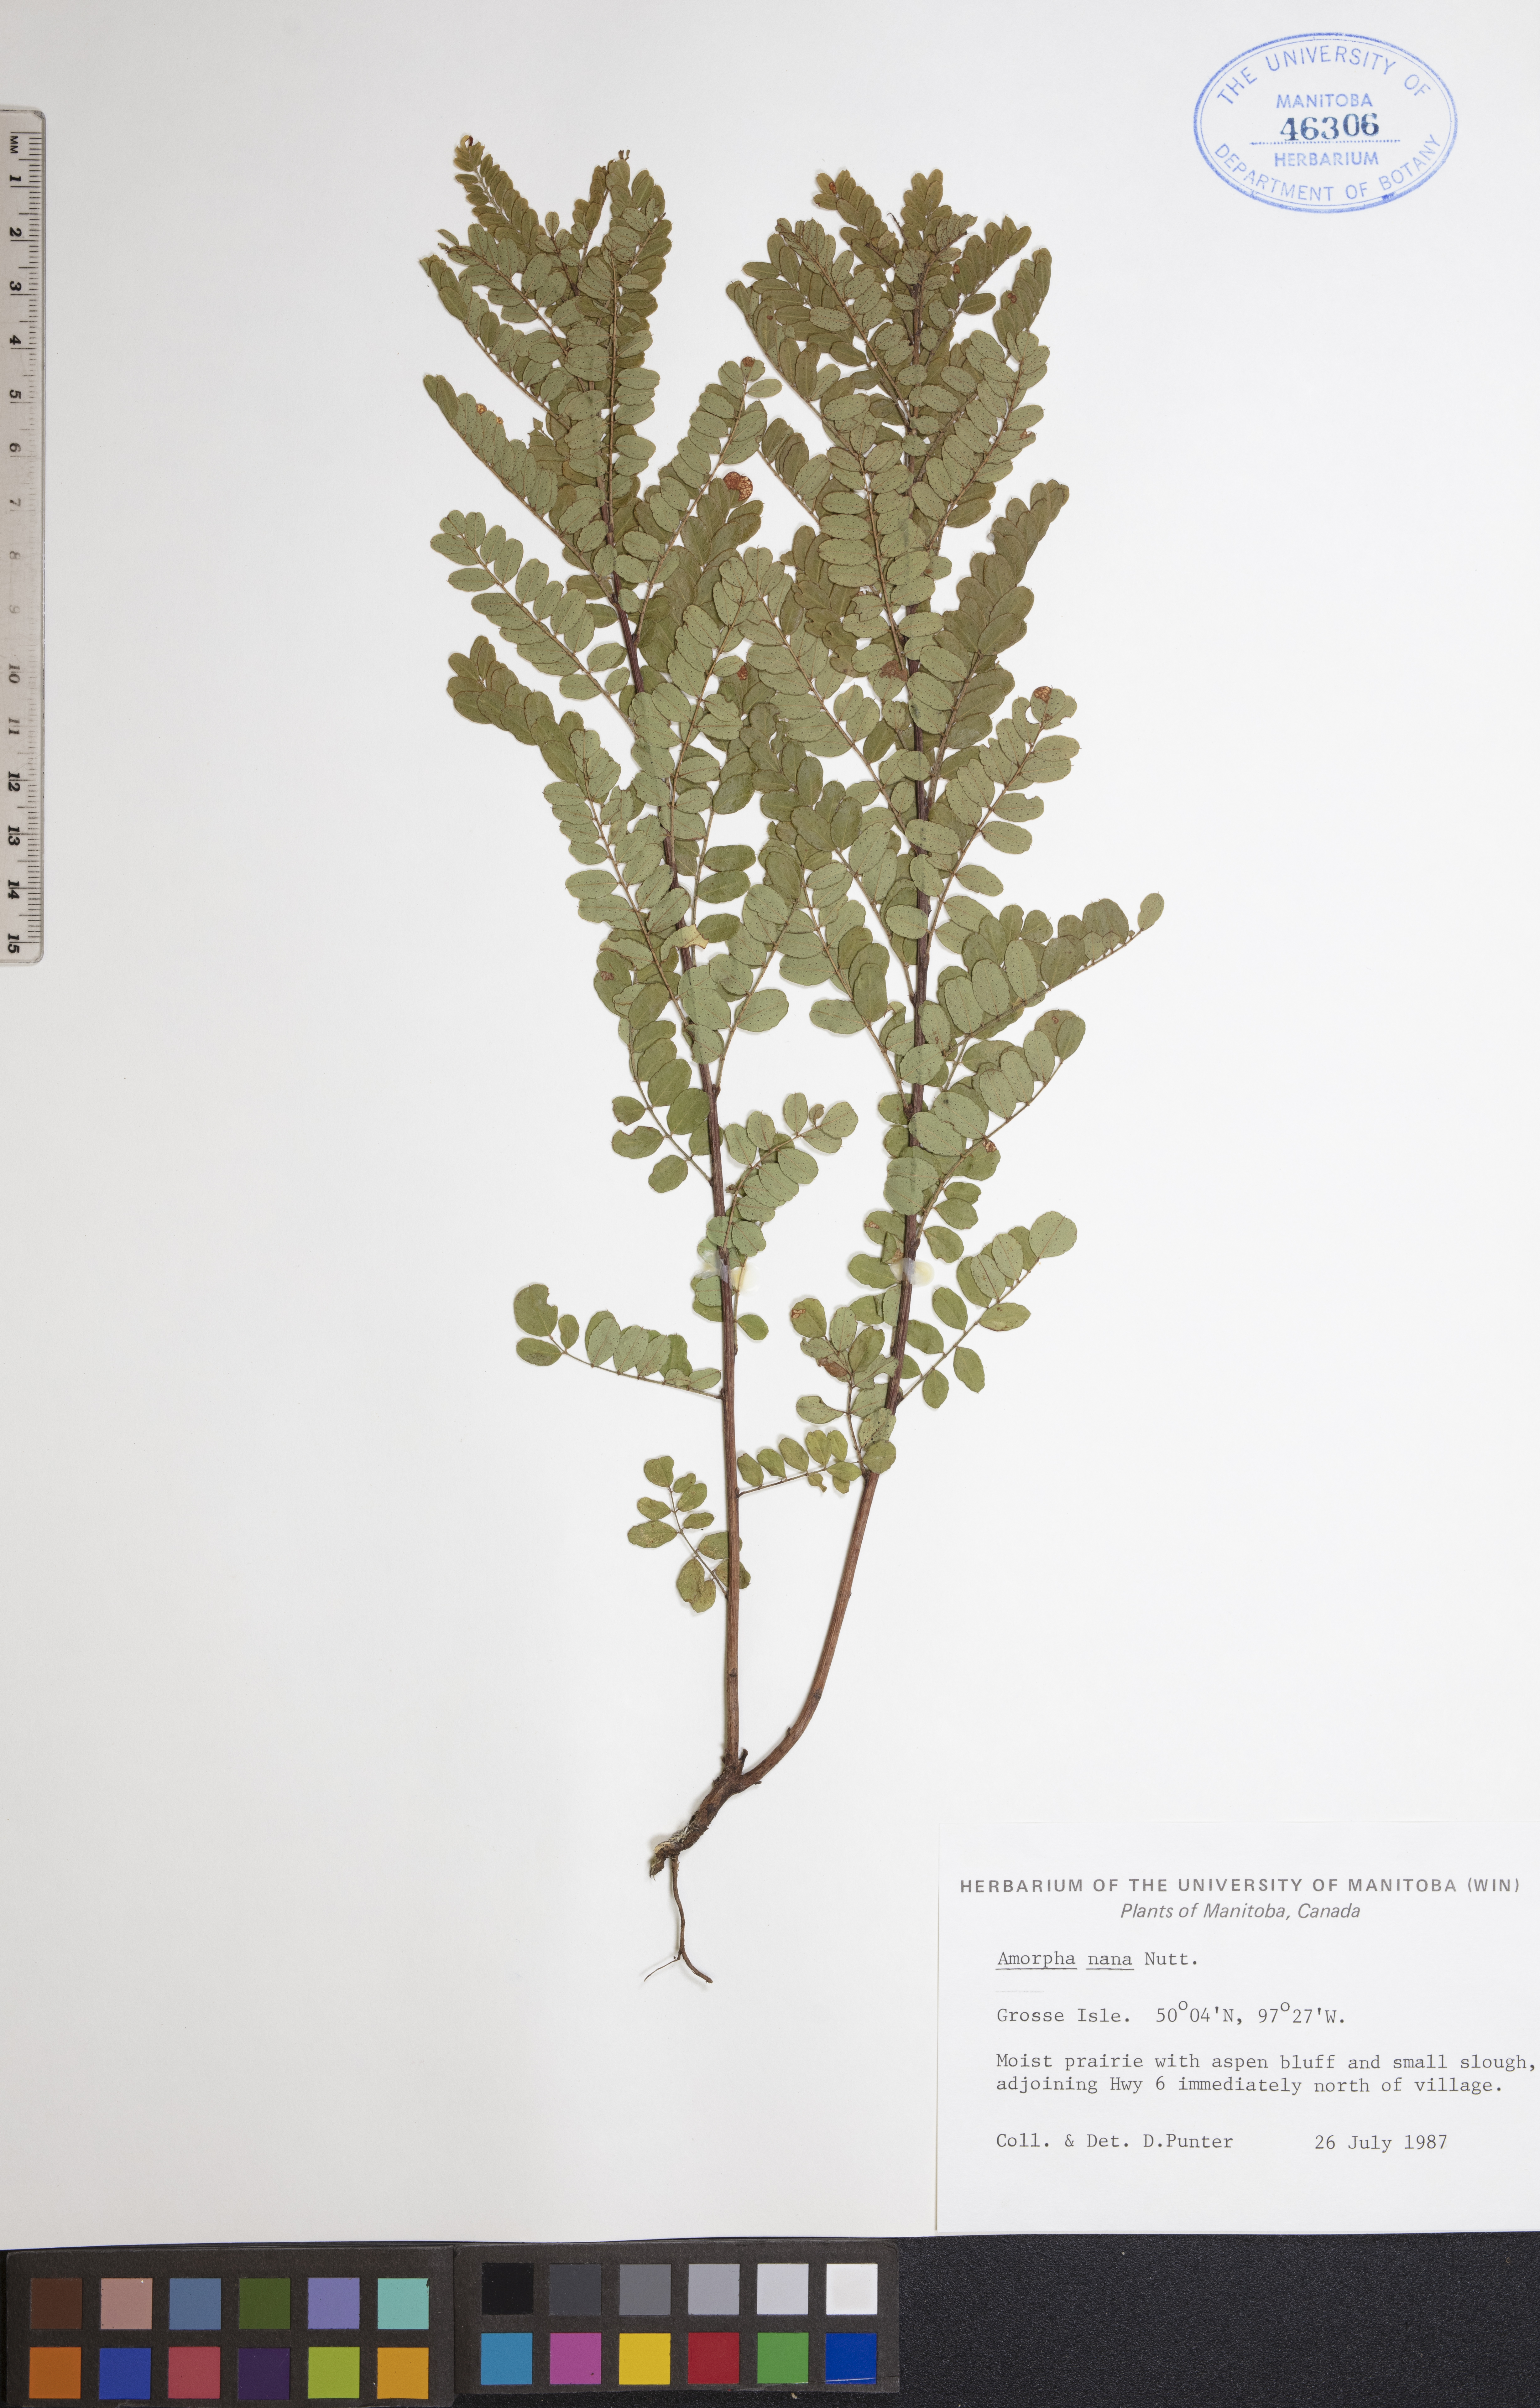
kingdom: Plantae
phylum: Tracheophyta
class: Magnoliopsida
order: Fabales
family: Fabaceae
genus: Amorpha
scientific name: Amorpha nana
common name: Fragrant false indigo
